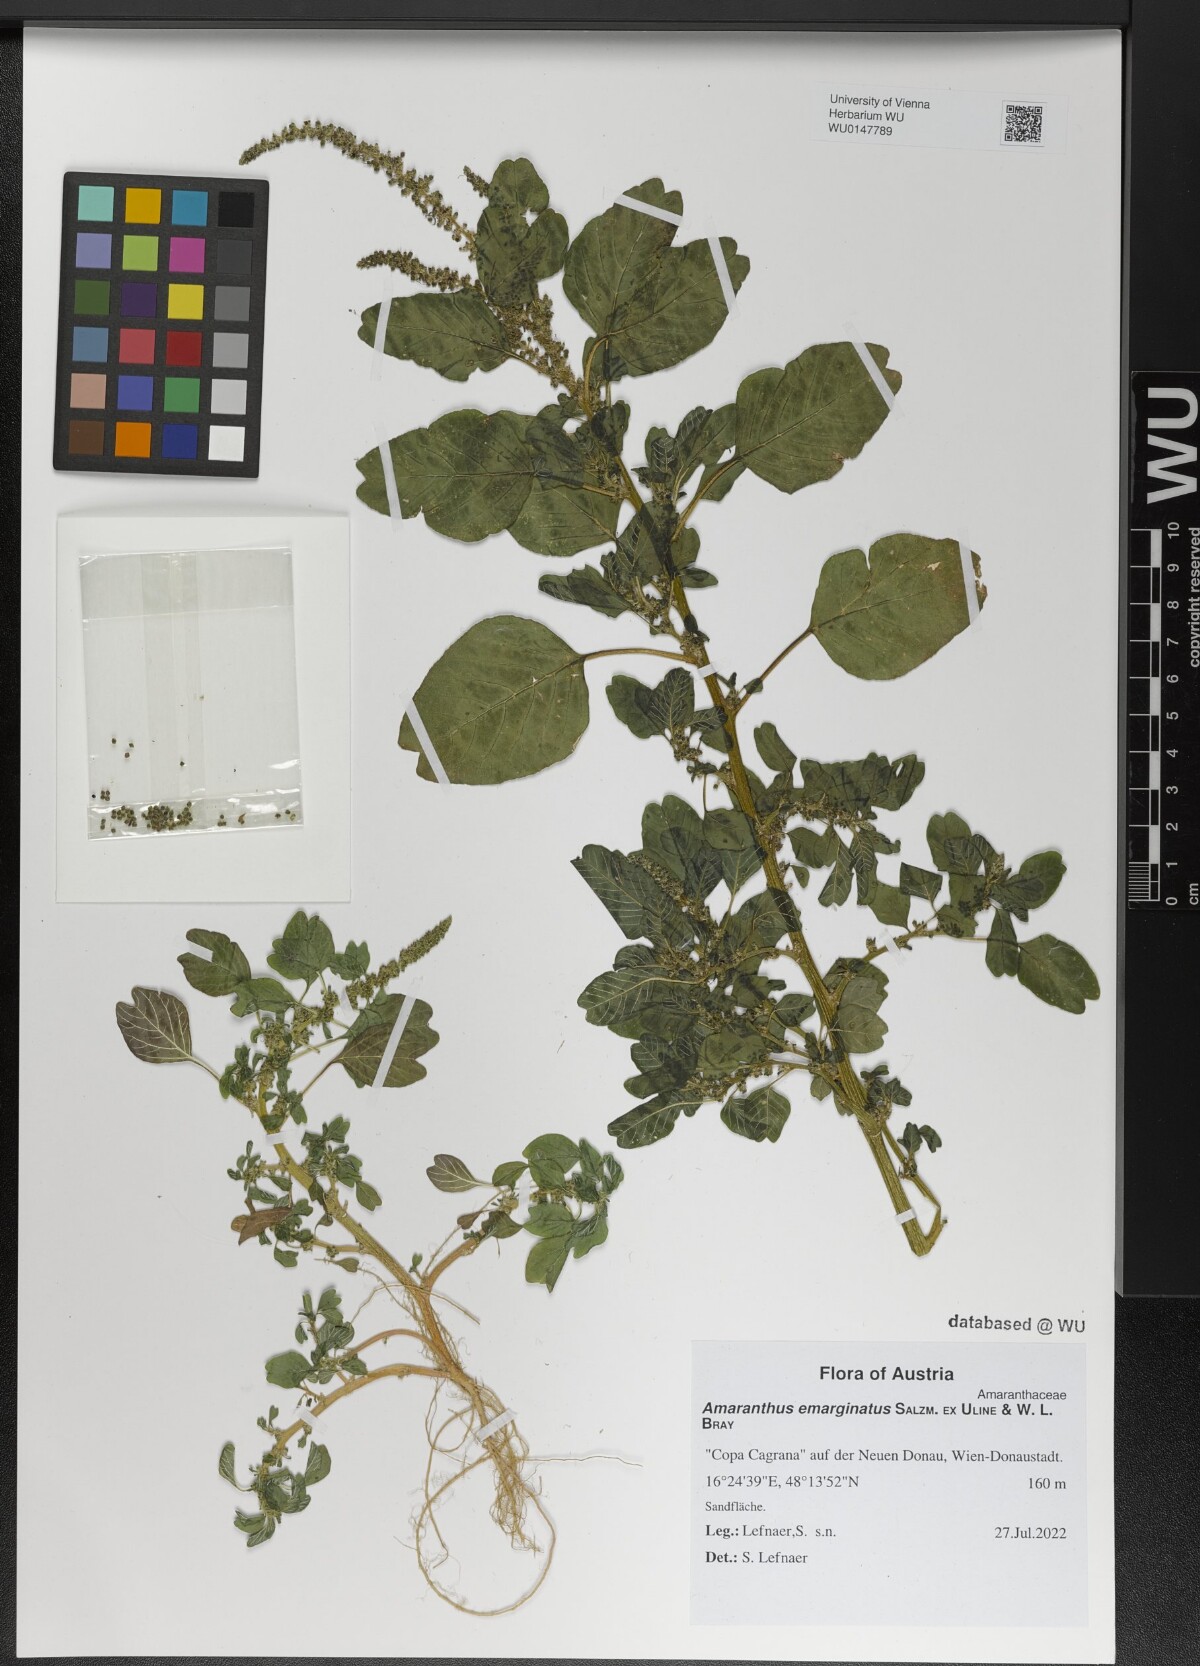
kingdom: Plantae
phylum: Tracheophyta
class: Magnoliopsida
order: Caryophyllales
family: Amaranthaceae
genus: Amaranthus
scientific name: Amaranthus emarginatus
